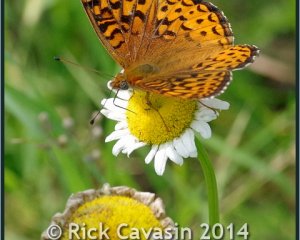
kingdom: Animalia
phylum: Arthropoda
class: Insecta
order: Lepidoptera
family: Nymphalidae
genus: Speyeria
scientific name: Speyeria atlantis
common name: Atlantis Fritillary
